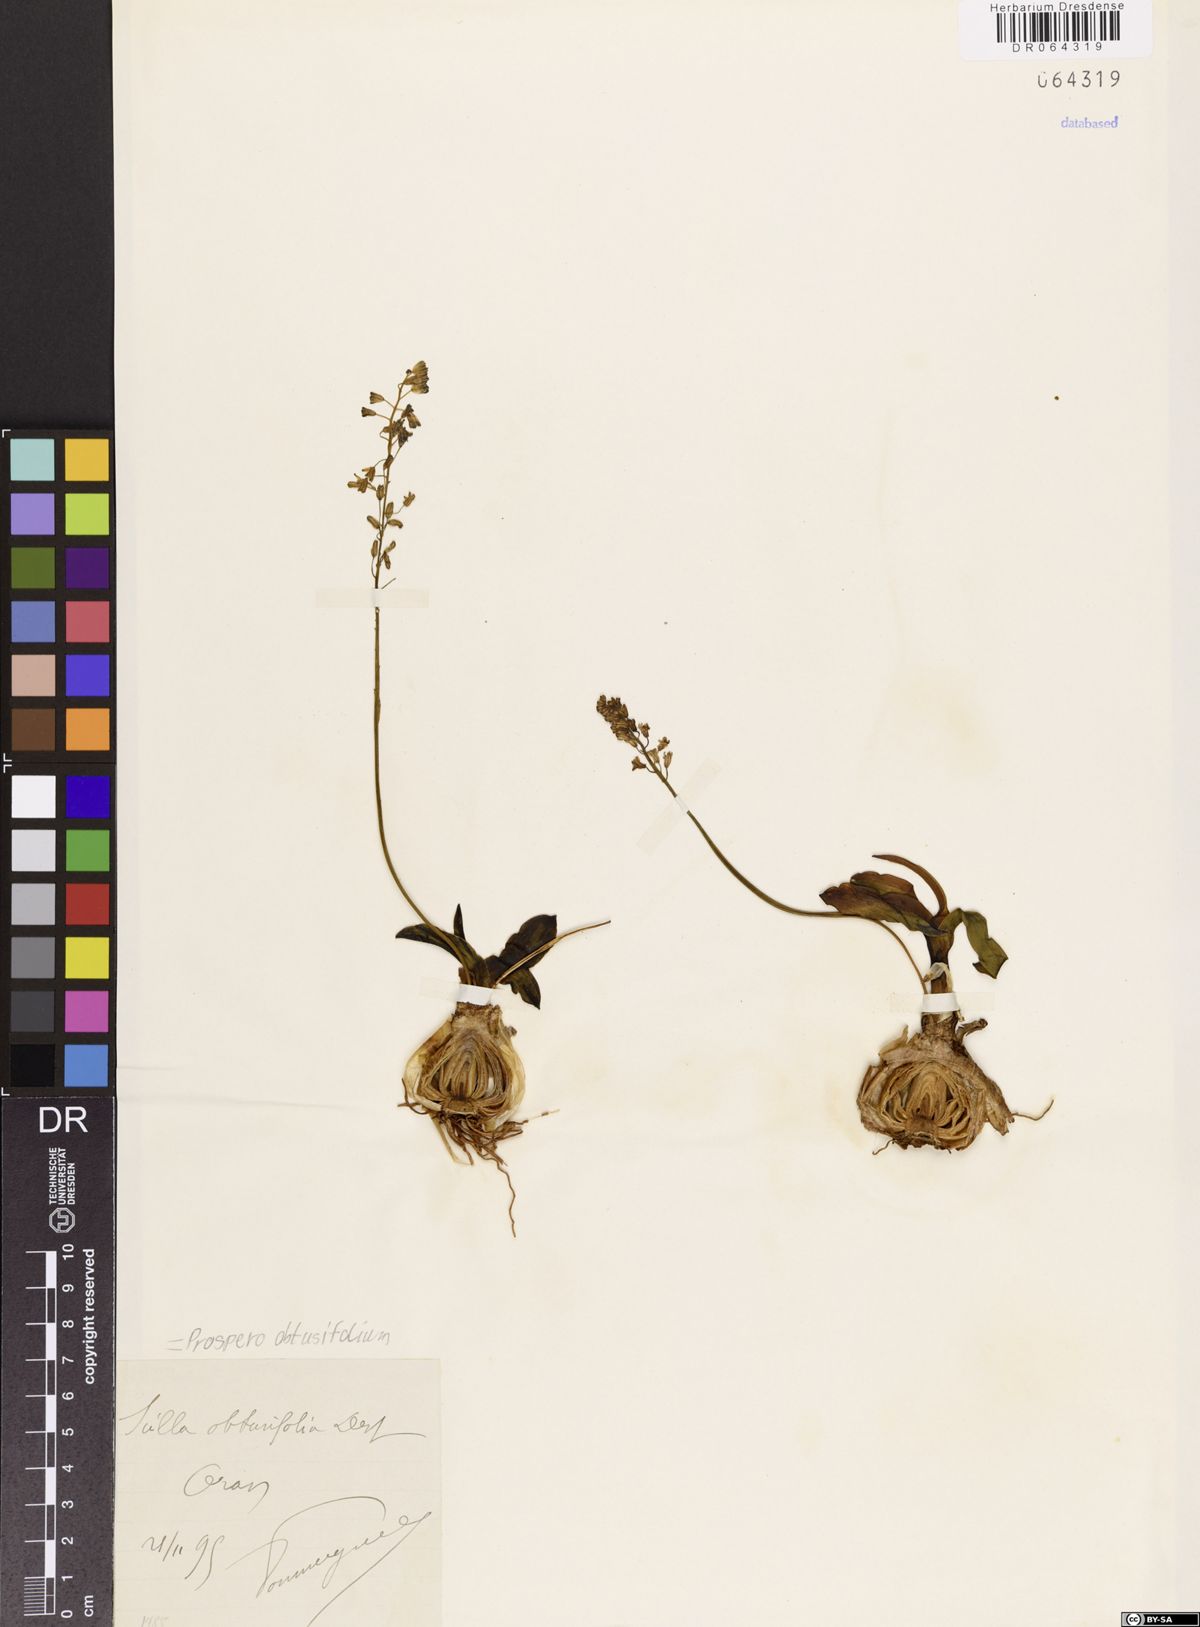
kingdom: Plantae
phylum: Tracheophyta
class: Liliopsida
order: Asparagales
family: Asparagaceae
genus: Prospero
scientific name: Prospero obtusifolium
